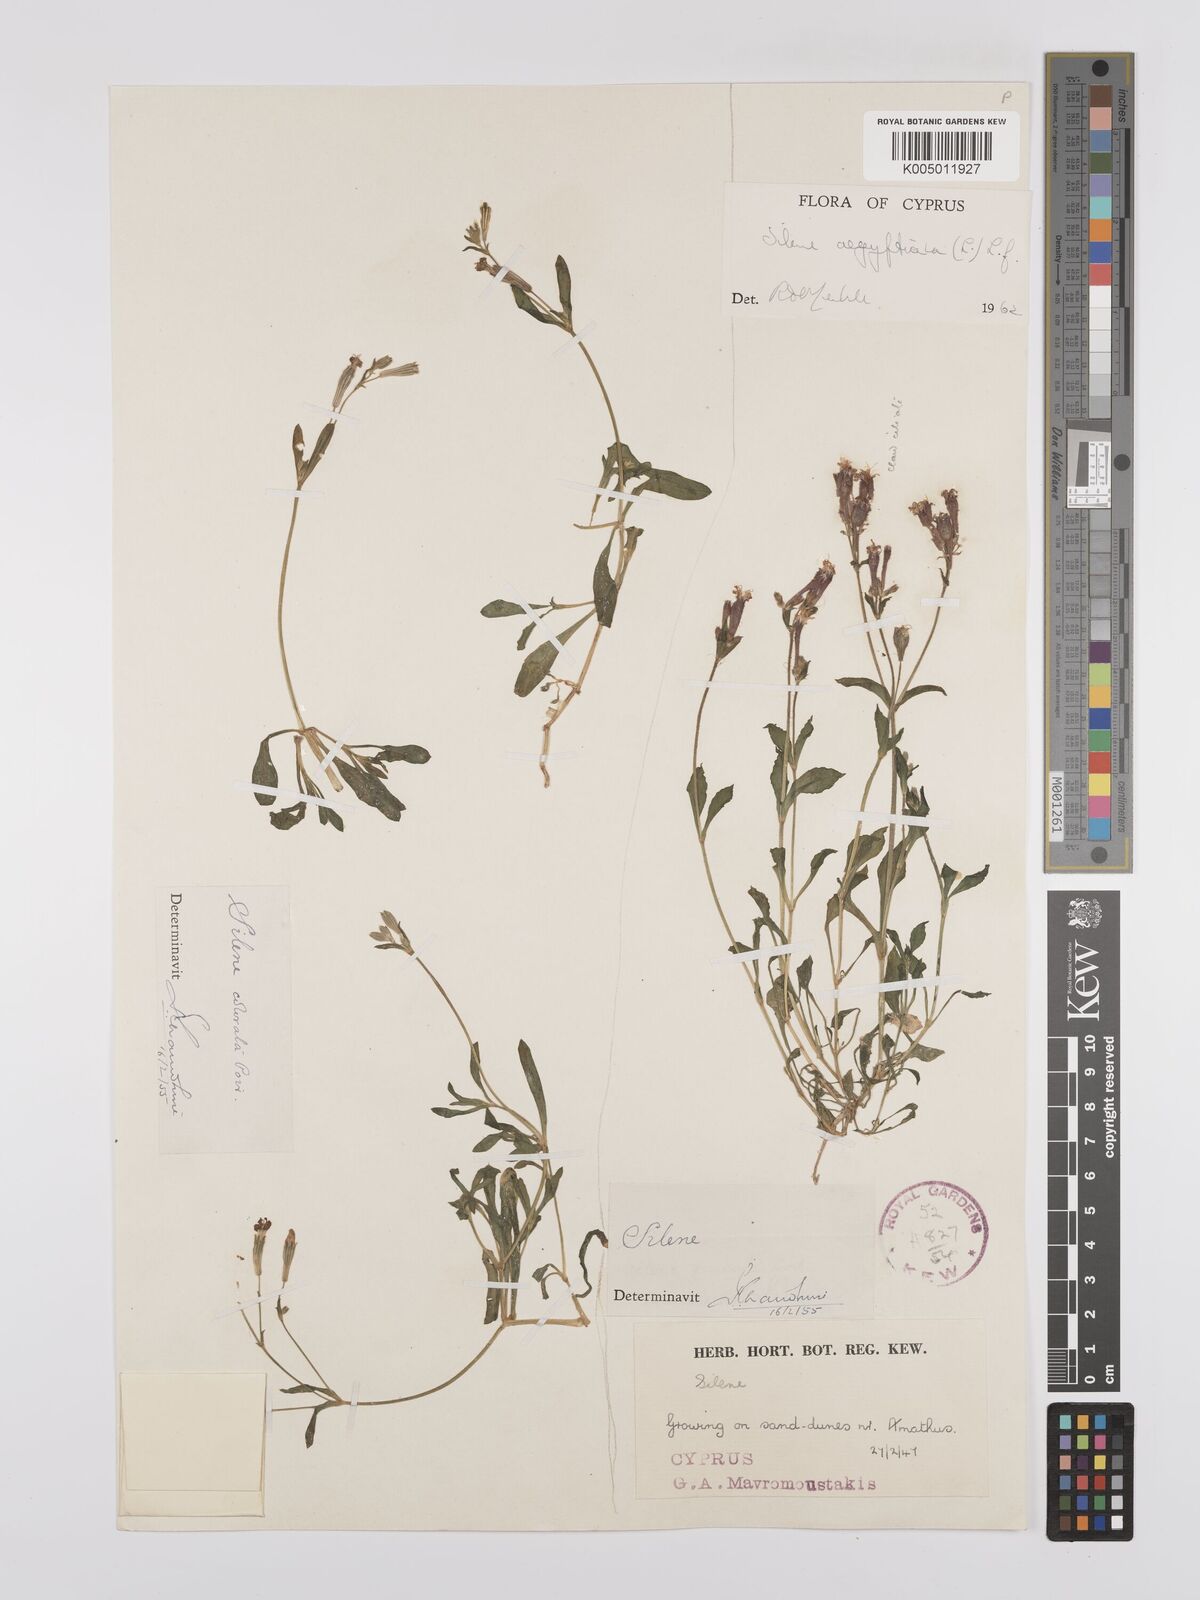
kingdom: Plantae
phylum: Tracheophyta
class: Magnoliopsida
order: Caryophyllales
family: Caryophyllaceae
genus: Silene
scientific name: Silene aegyptiaca
